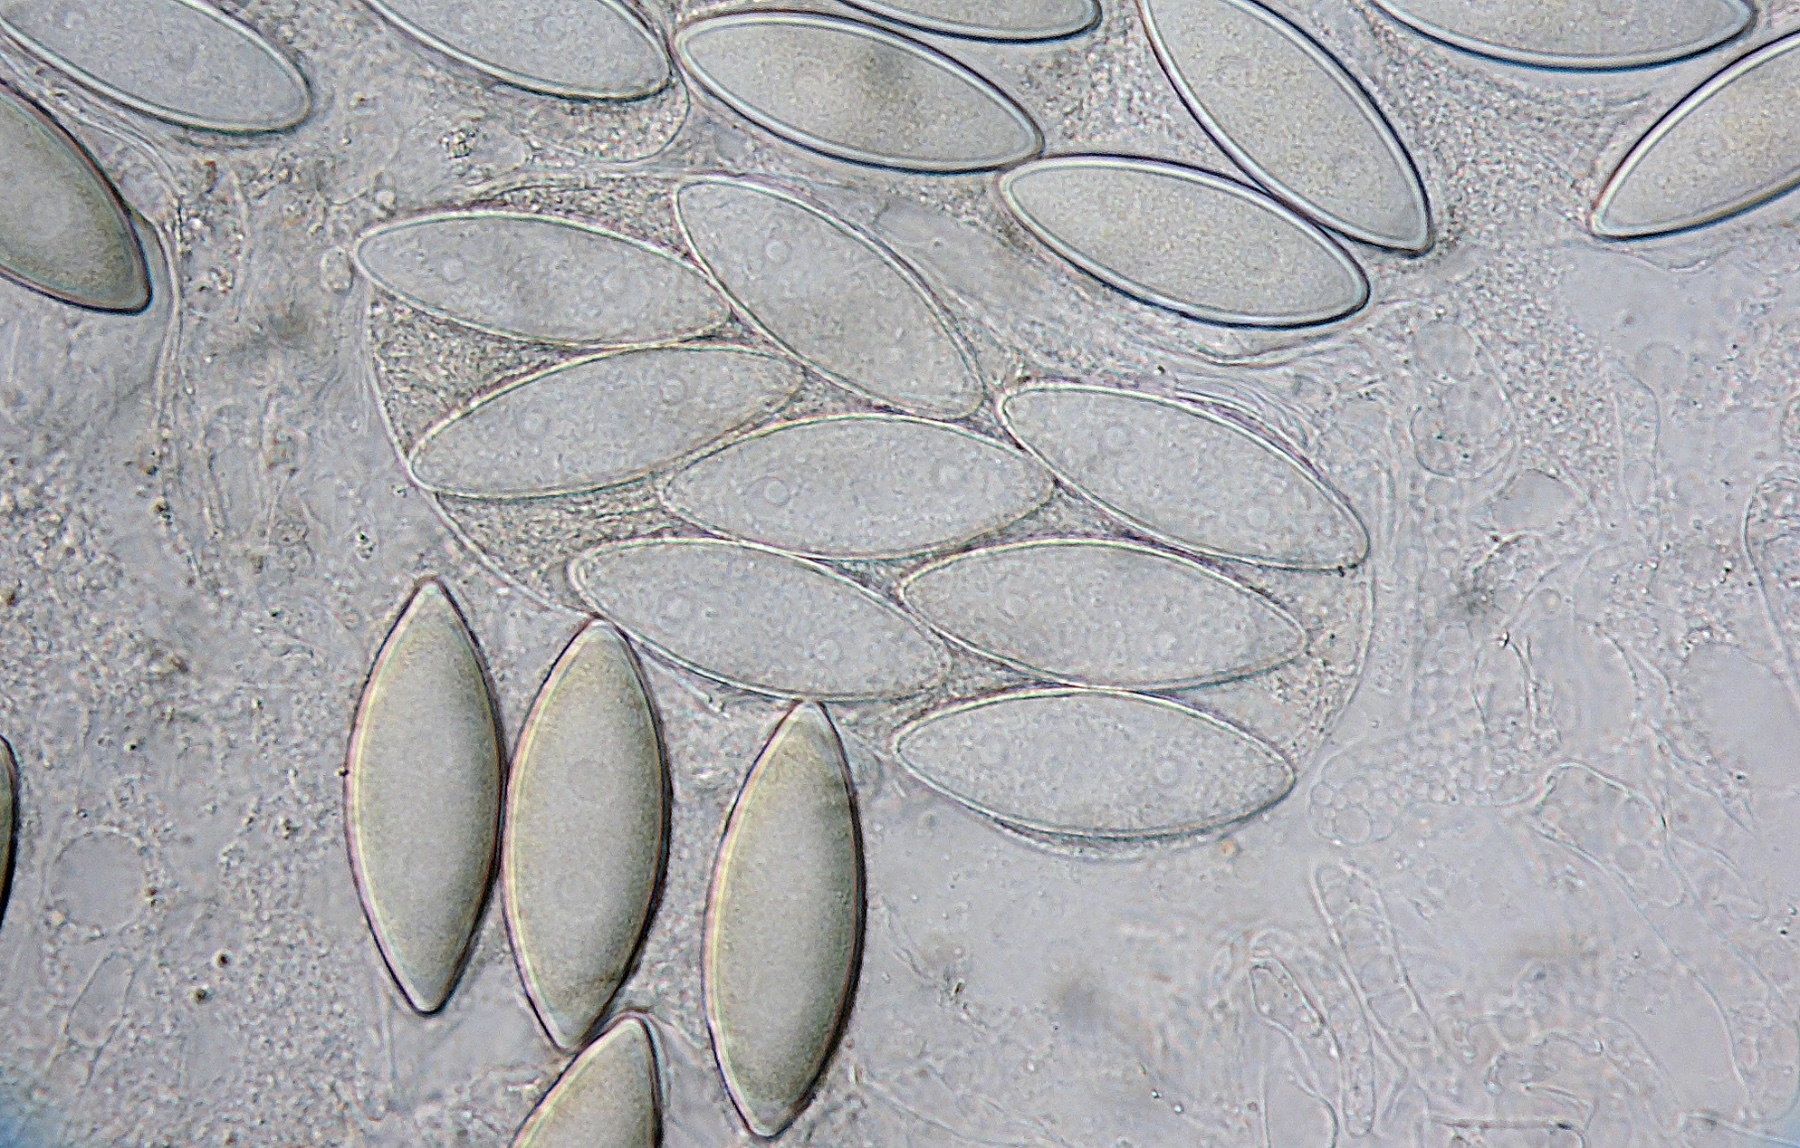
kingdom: Fungi
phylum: Ascomycota
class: Sordariomycetes
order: Hypocreales
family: Bionectriaceae
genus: Selinia
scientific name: Selinia pulchra
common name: gødnings-gyldenkerne
